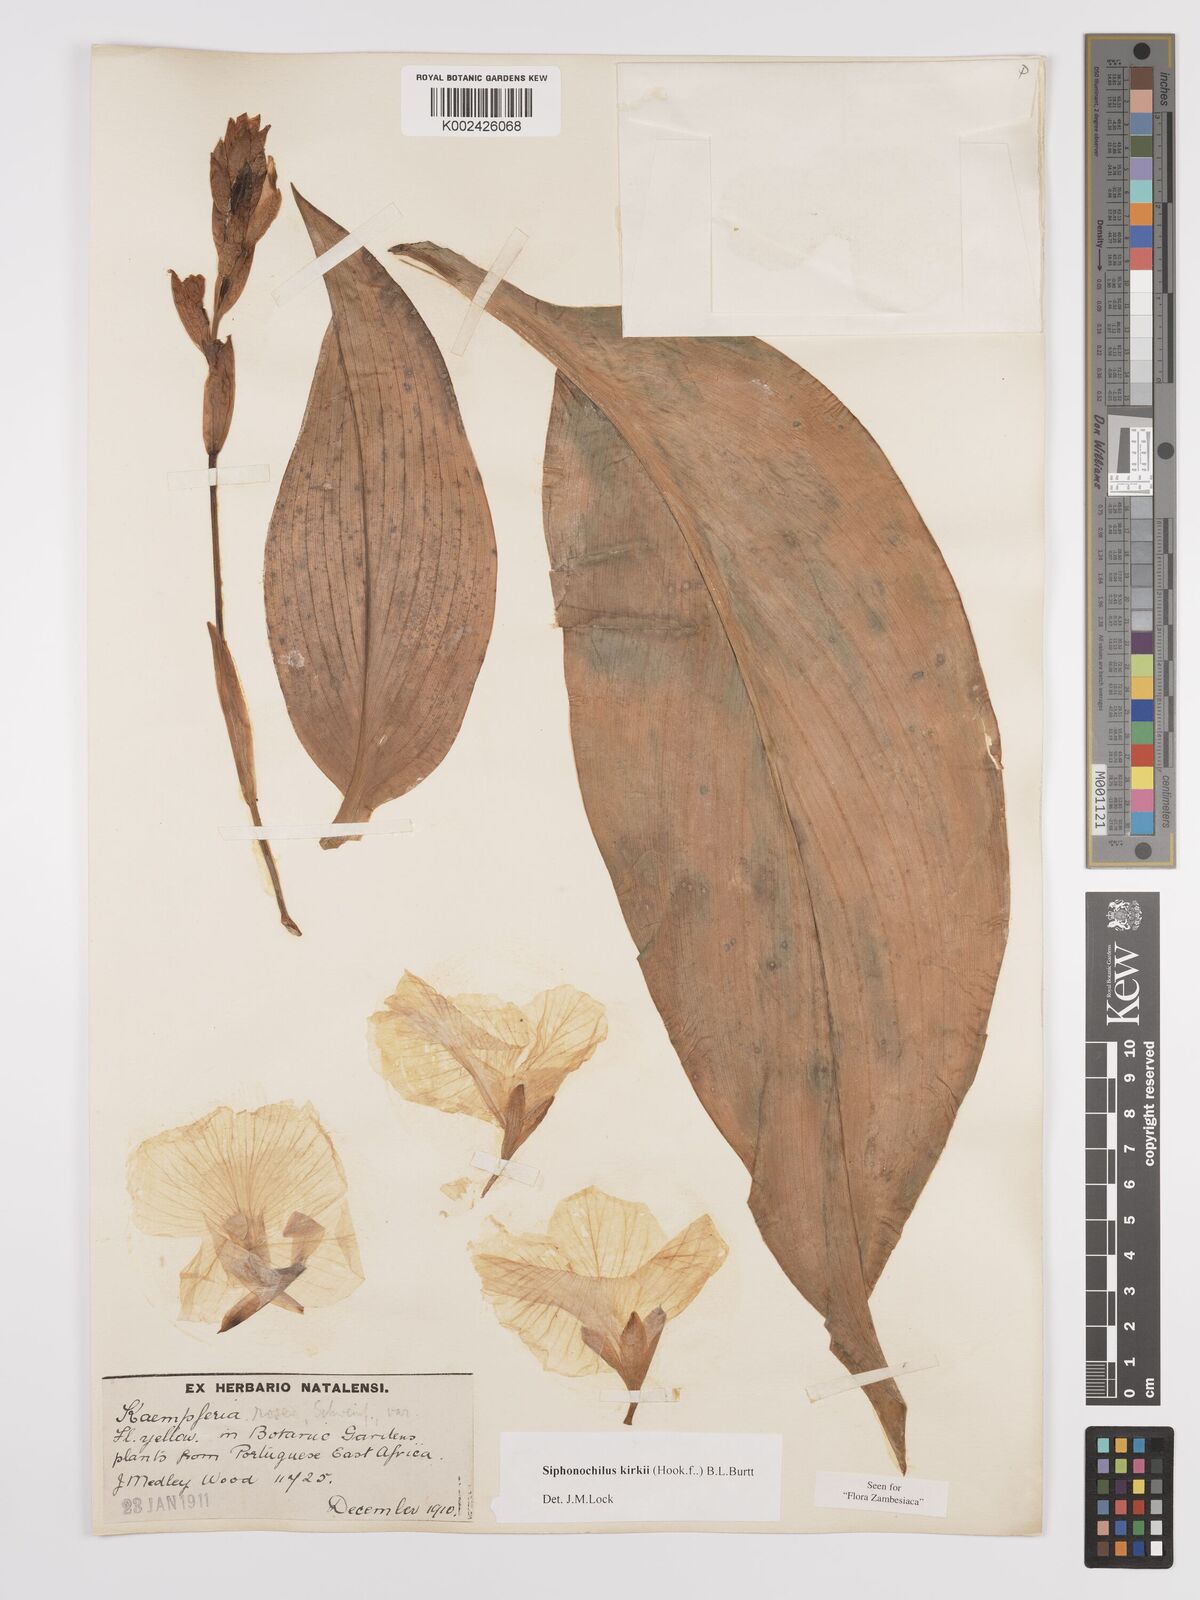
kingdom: Plantae
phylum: Tracheophyta
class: Liliopsida
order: Zingiberales
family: Zingiberaceae
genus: Siphonochilus
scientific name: Siphonochilus kirkii
